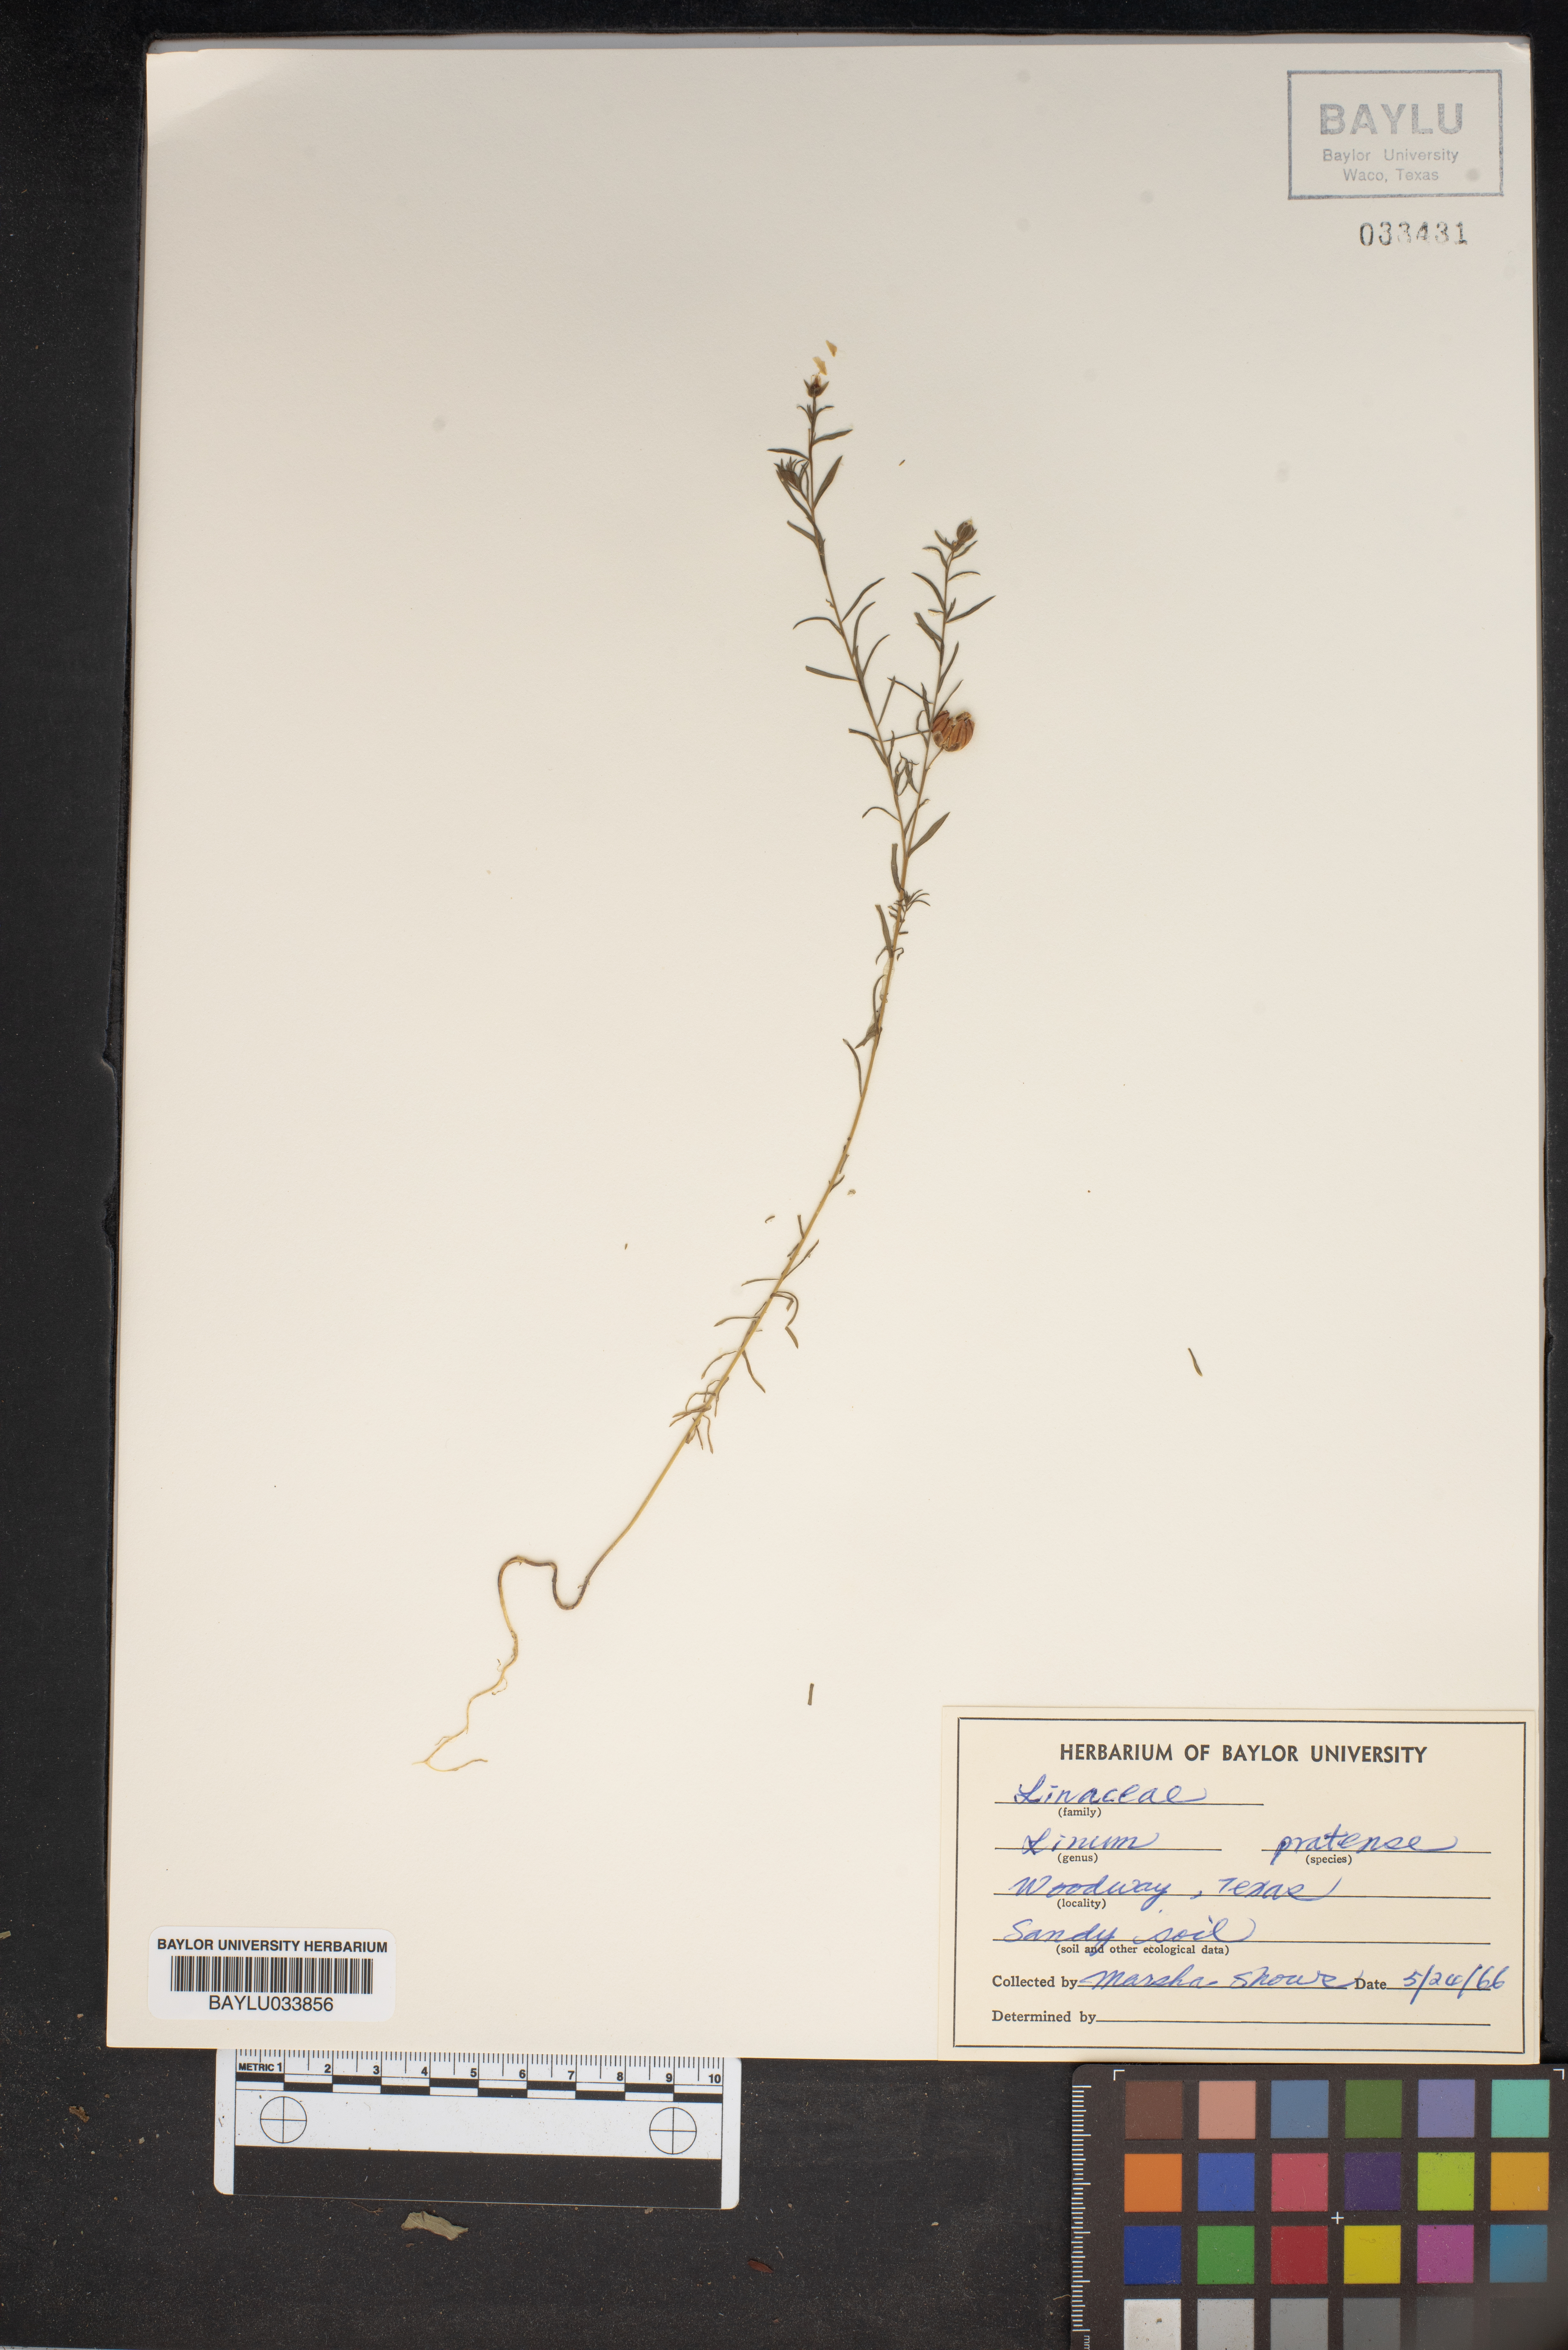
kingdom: Plantae
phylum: Tracheophyta
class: Magnoliopsida
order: Malpighiales
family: Linaceae
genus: Linum
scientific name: Linum pratense
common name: Norton's flax
